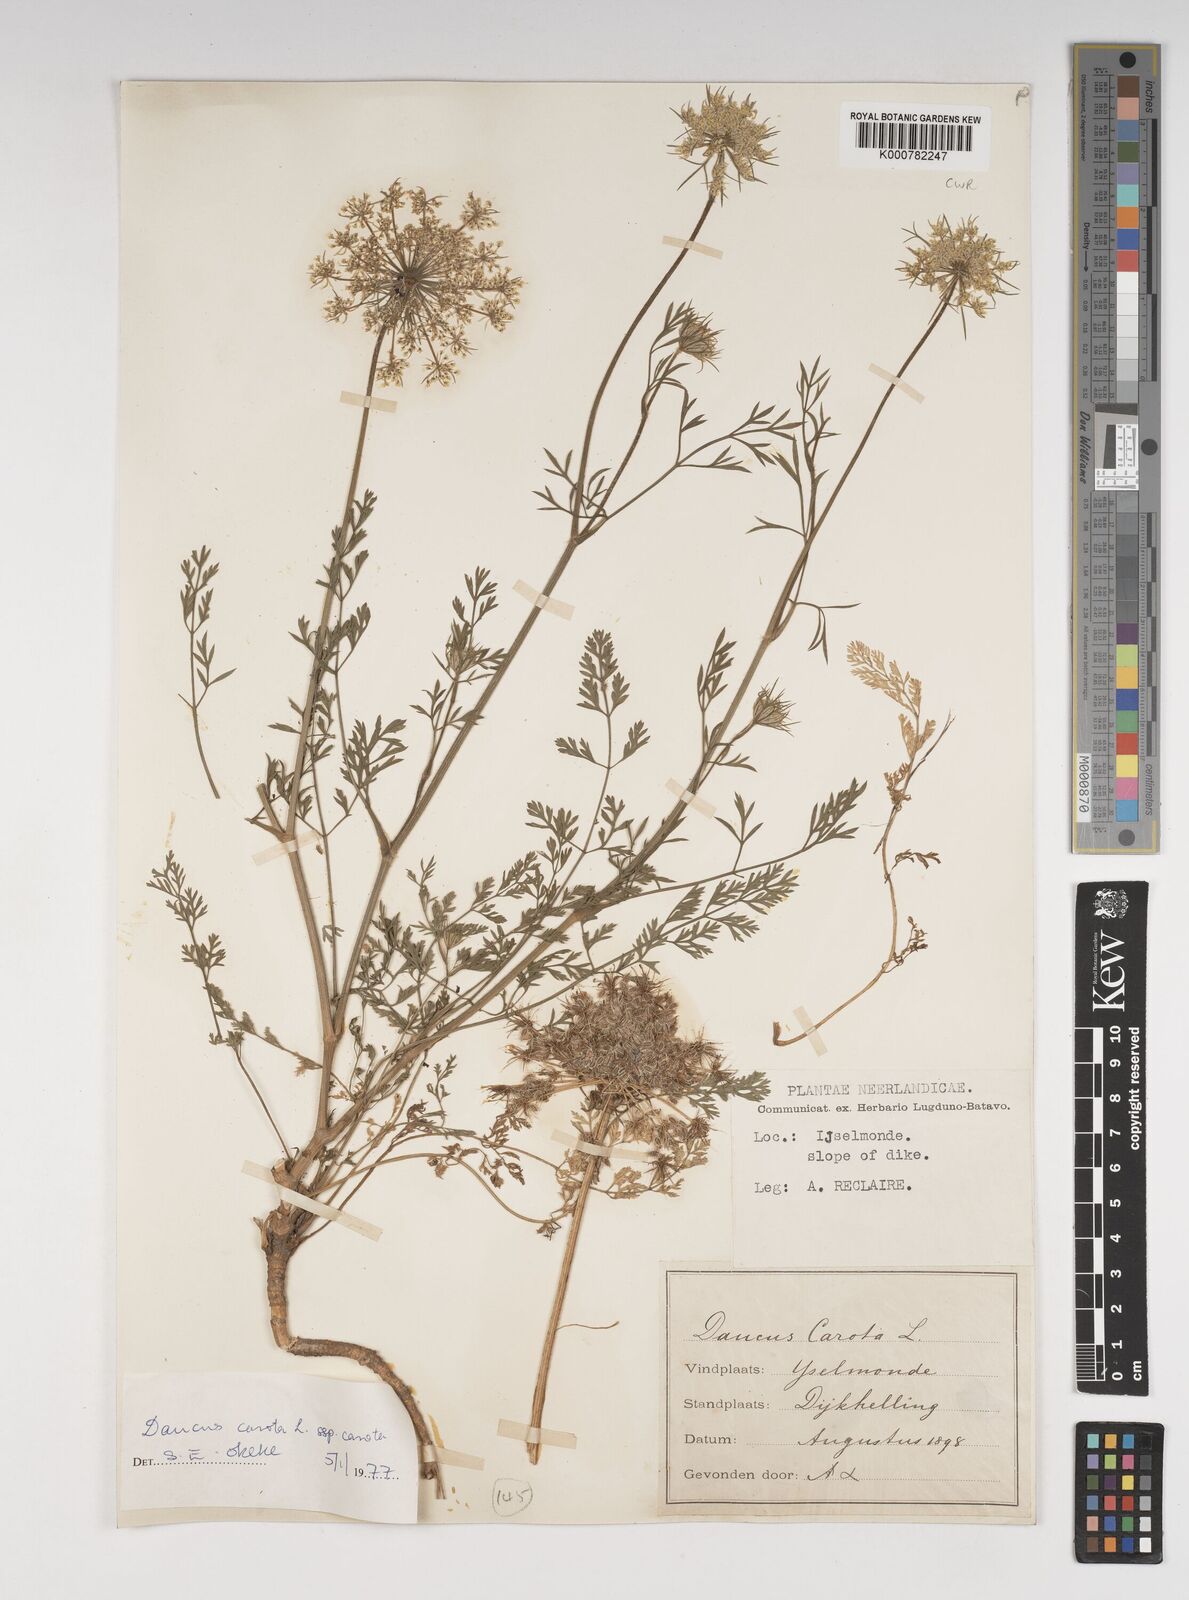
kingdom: Plantae
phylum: Tracheophyta
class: Magnoliopsida
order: Apiales
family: Apiaceae
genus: Daucus
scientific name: Daucus carota
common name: Wild carrot
